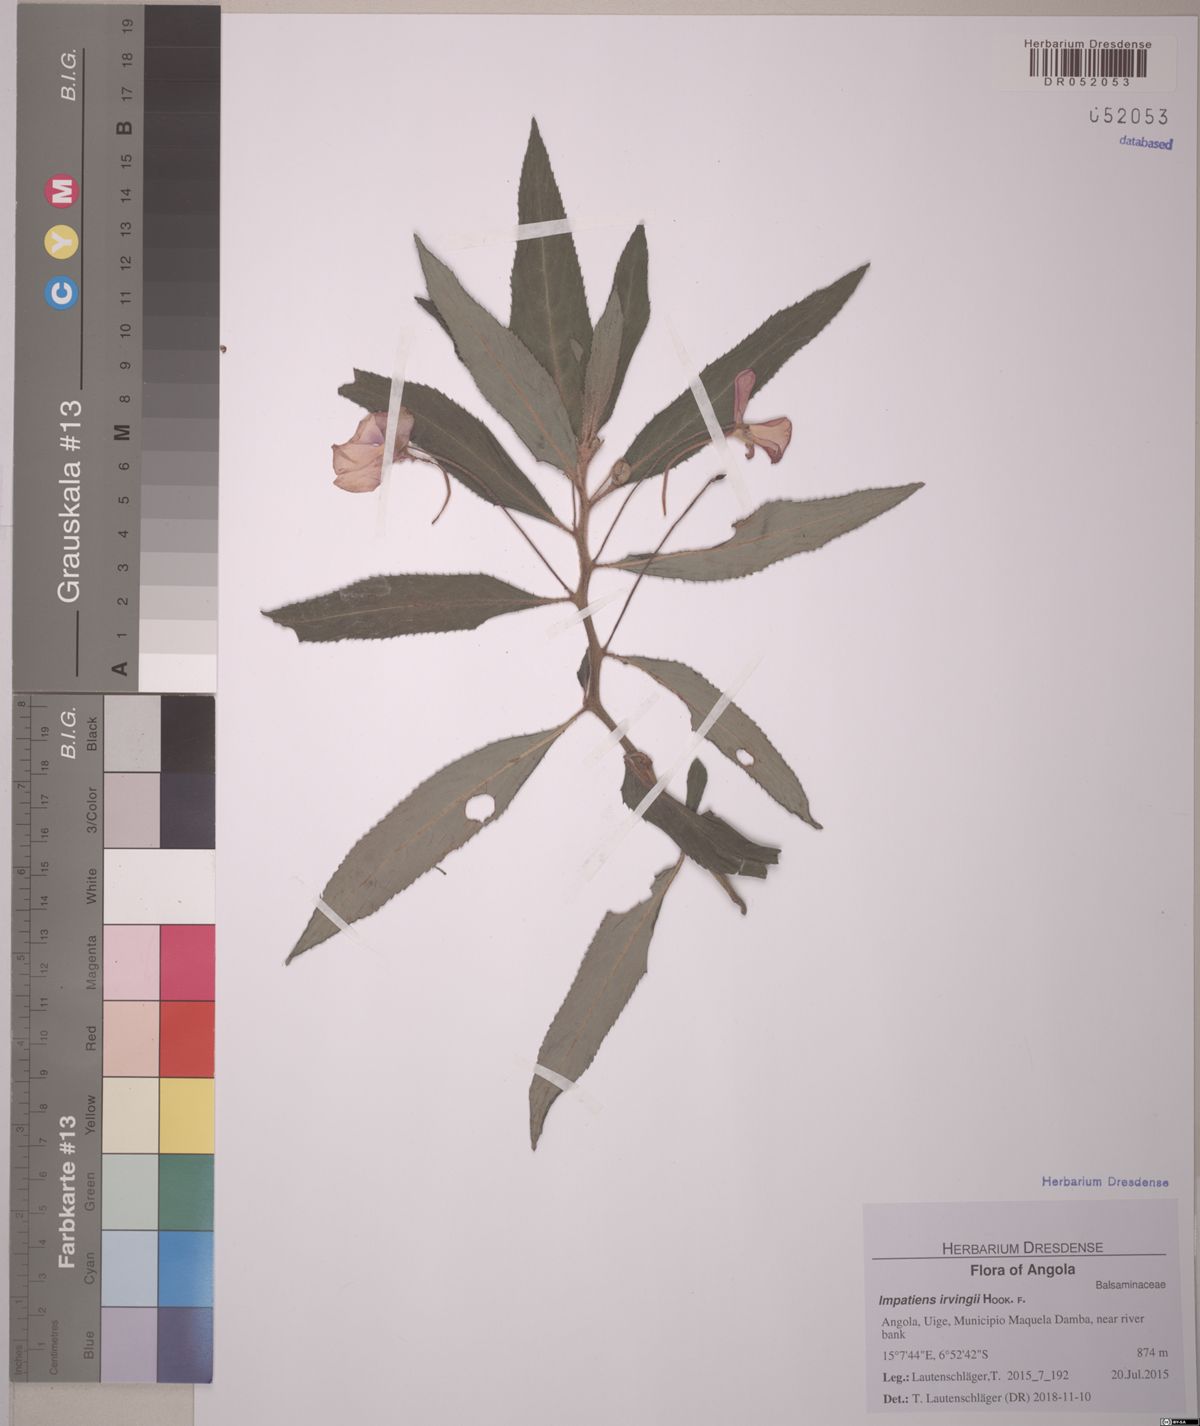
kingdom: Plantae
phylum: Tracheophyta
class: Magnoliopsida
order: Ericales
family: Balsaminaceae
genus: Impatiens
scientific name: Impatiens irvingii
